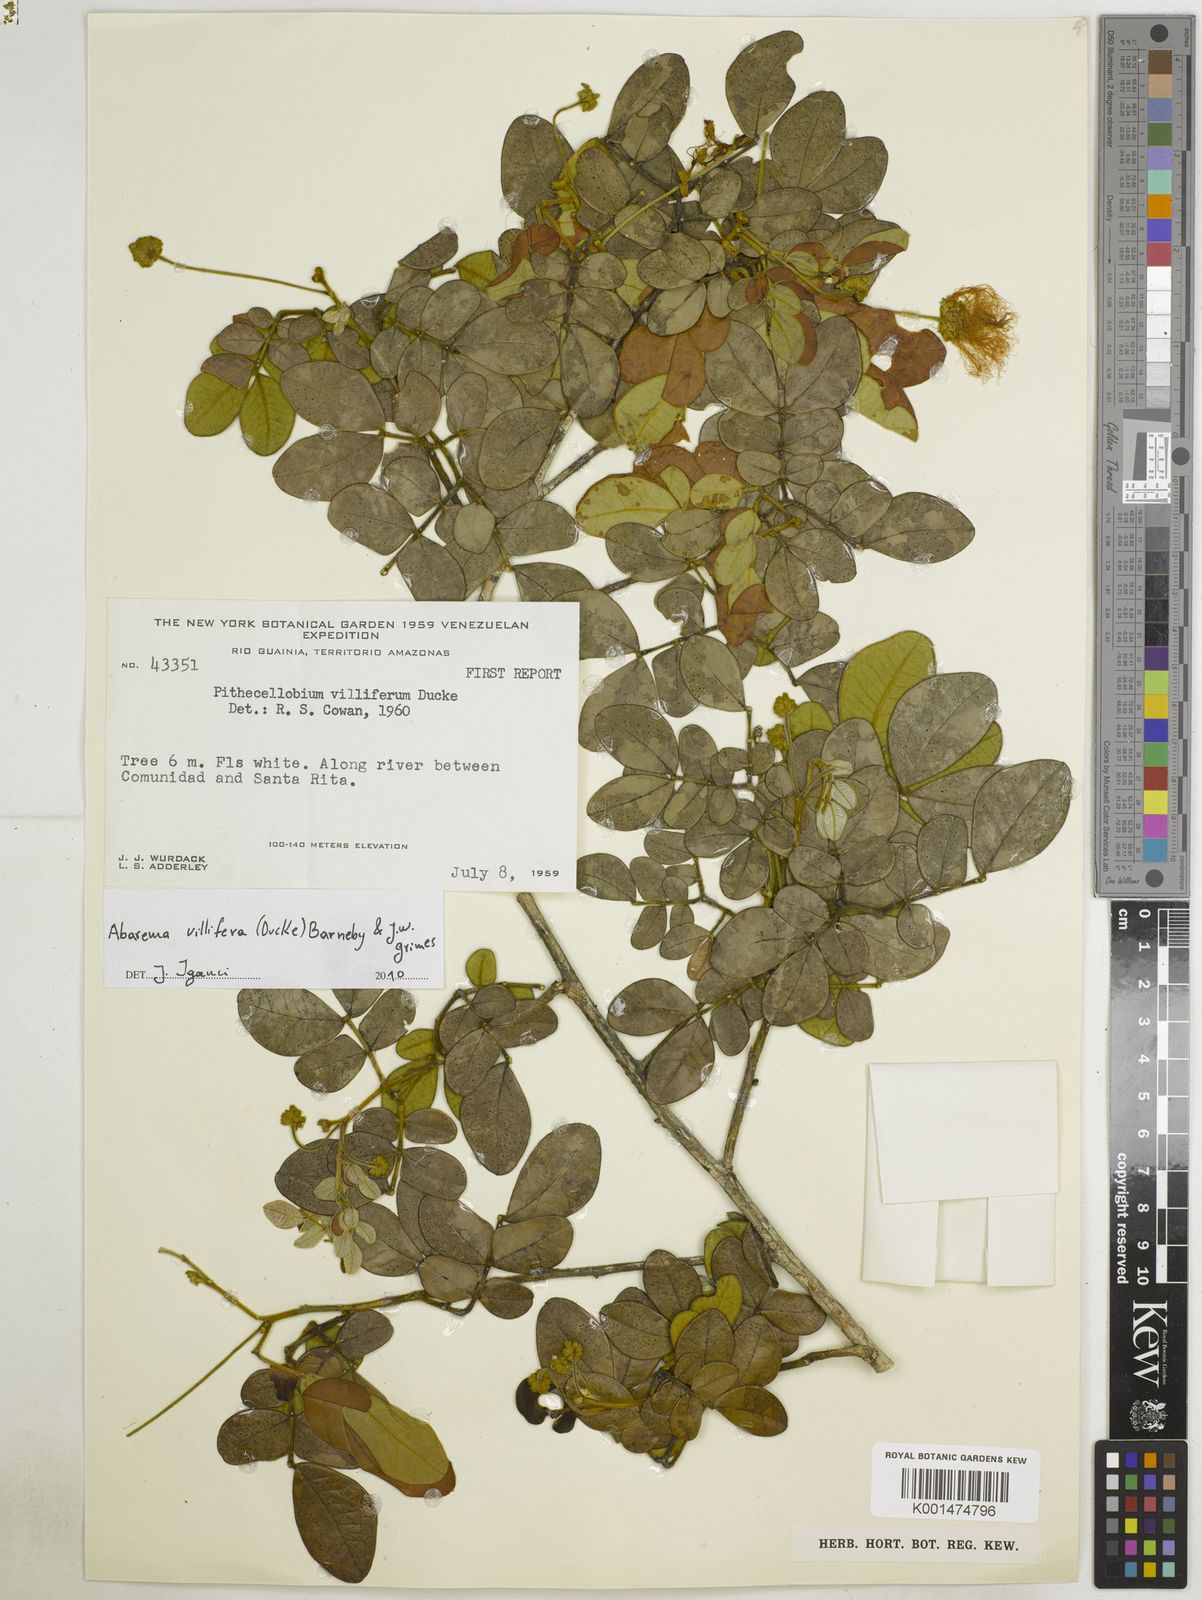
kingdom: Plantae
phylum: Tracheophyta
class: Magnoliopsida
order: Fabales
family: Fabaceae
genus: Jupunba
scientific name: Jupunba villifera
